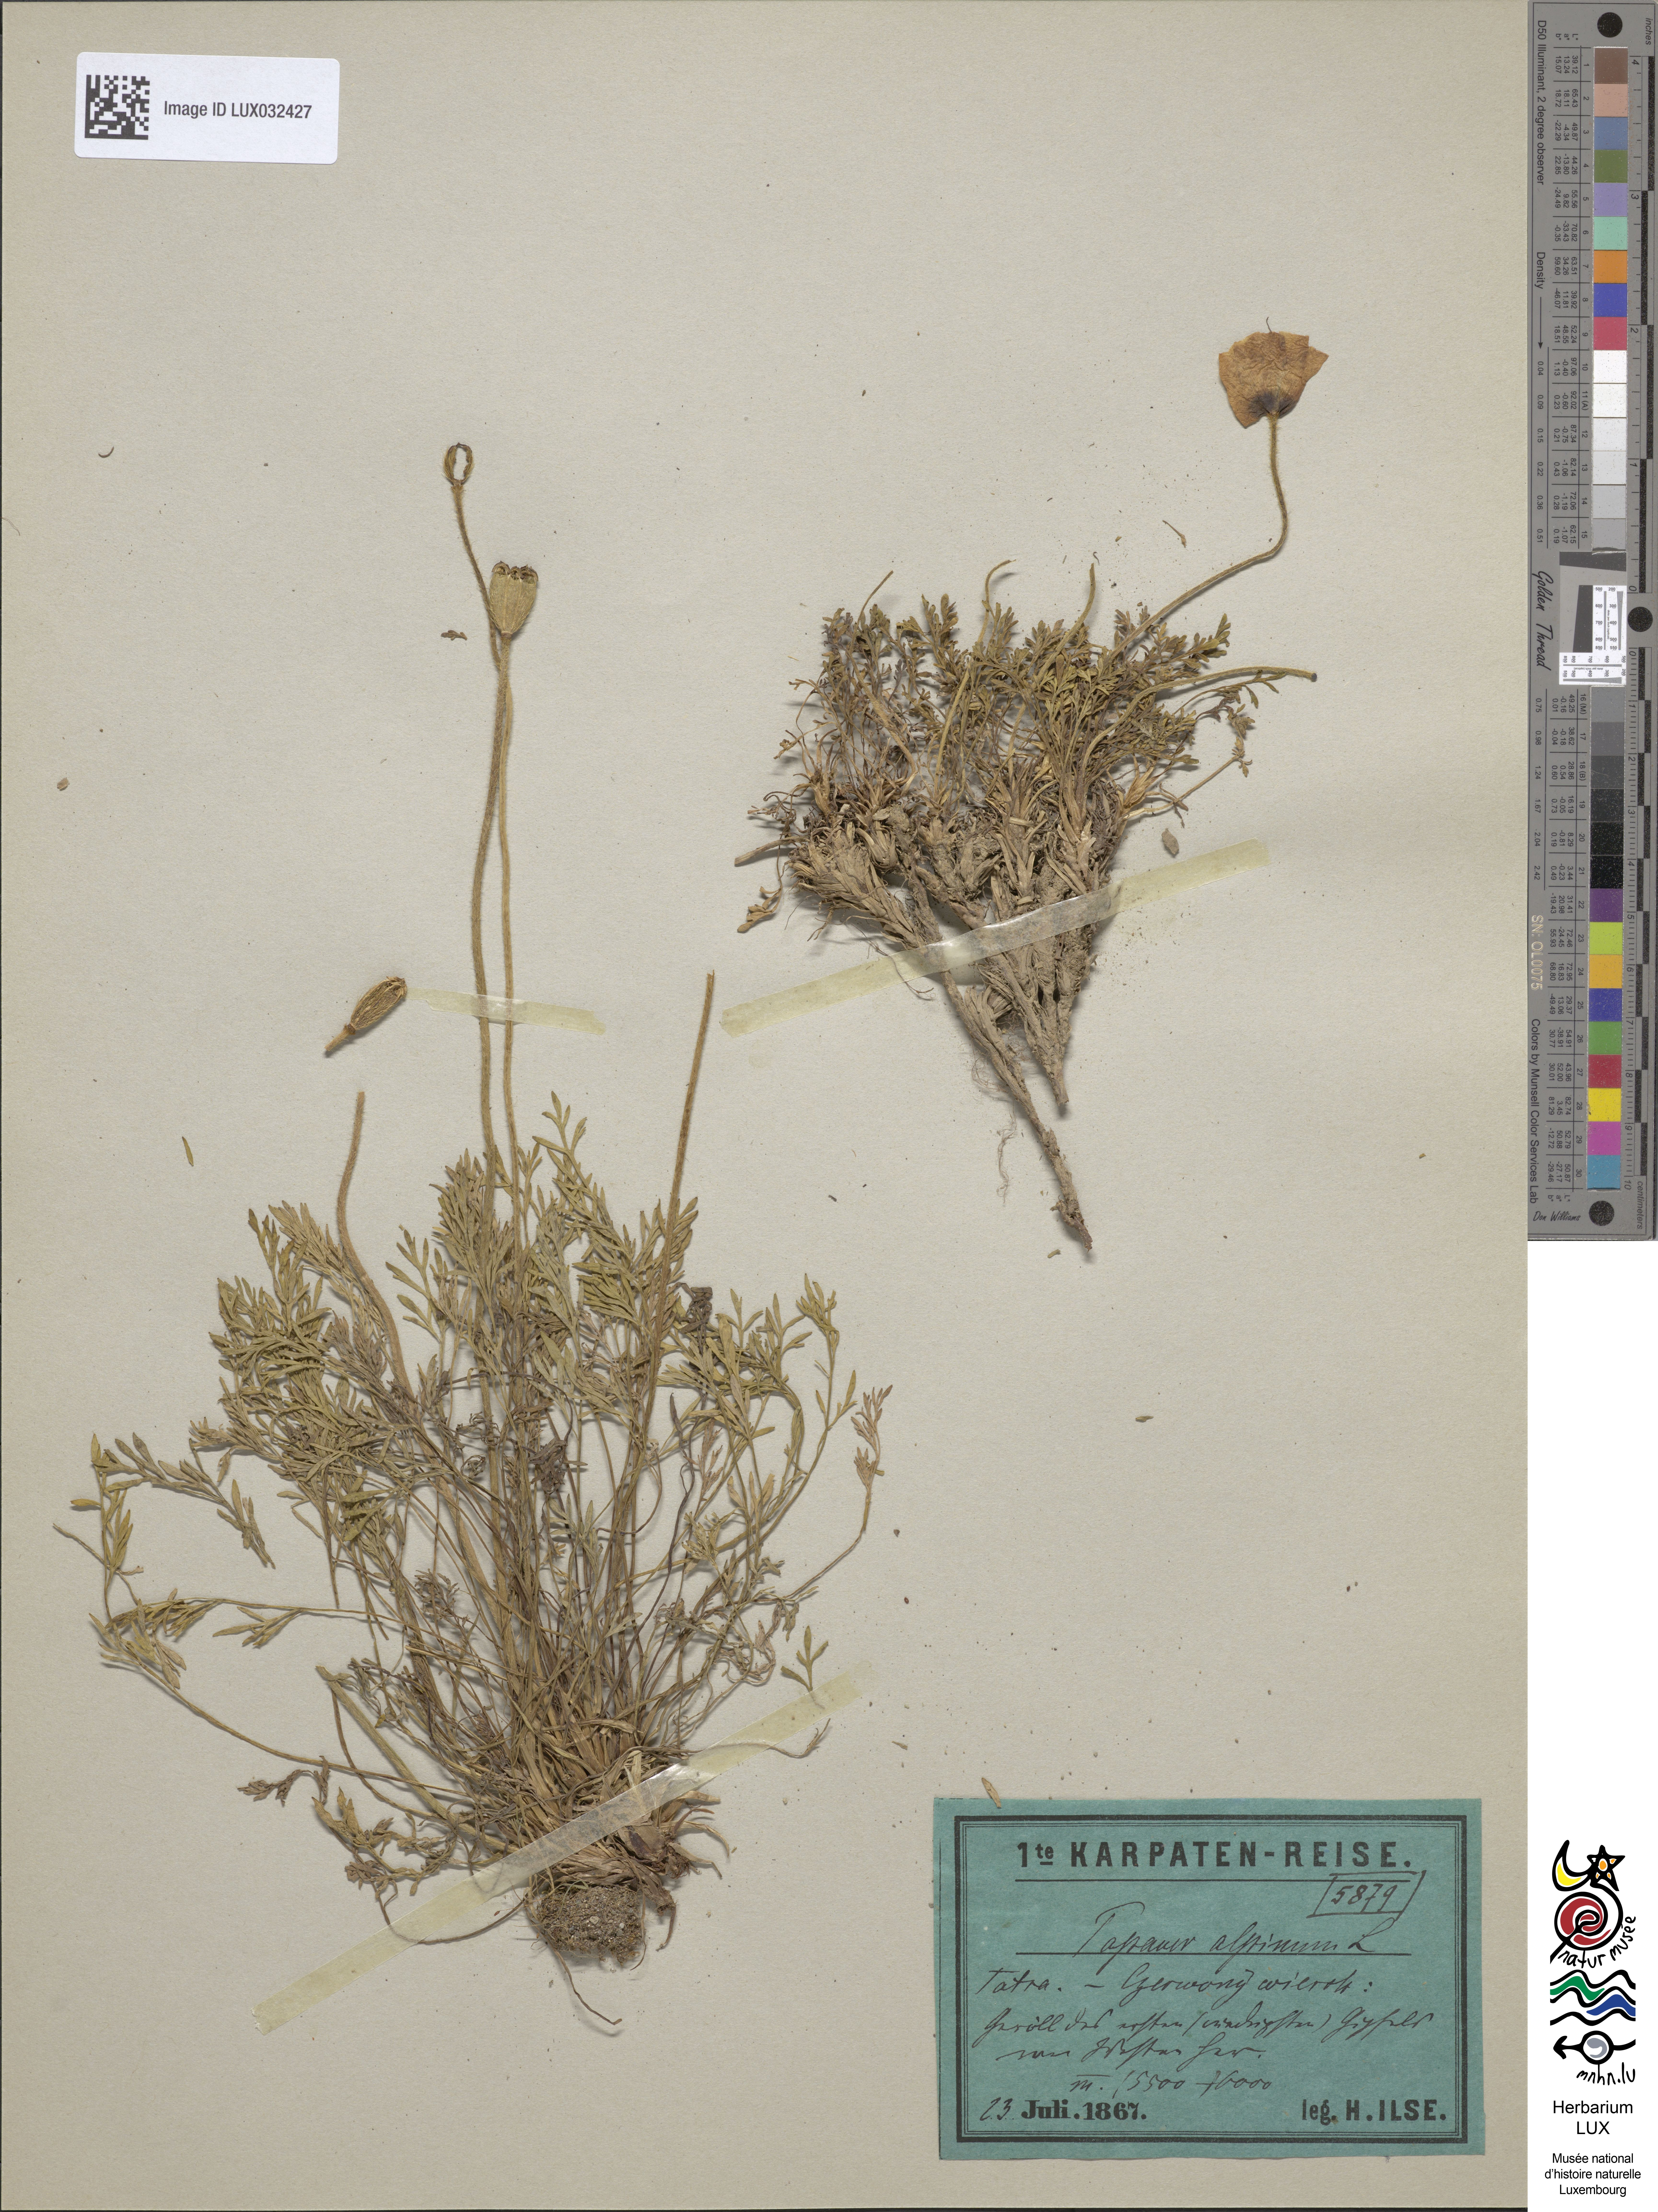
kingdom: Plantae
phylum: Tracheophyta
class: Magnoliopsida
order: Ranunculales
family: Papaveraceae
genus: Papaver
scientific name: Papaver alpinum
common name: Austrian poppy
